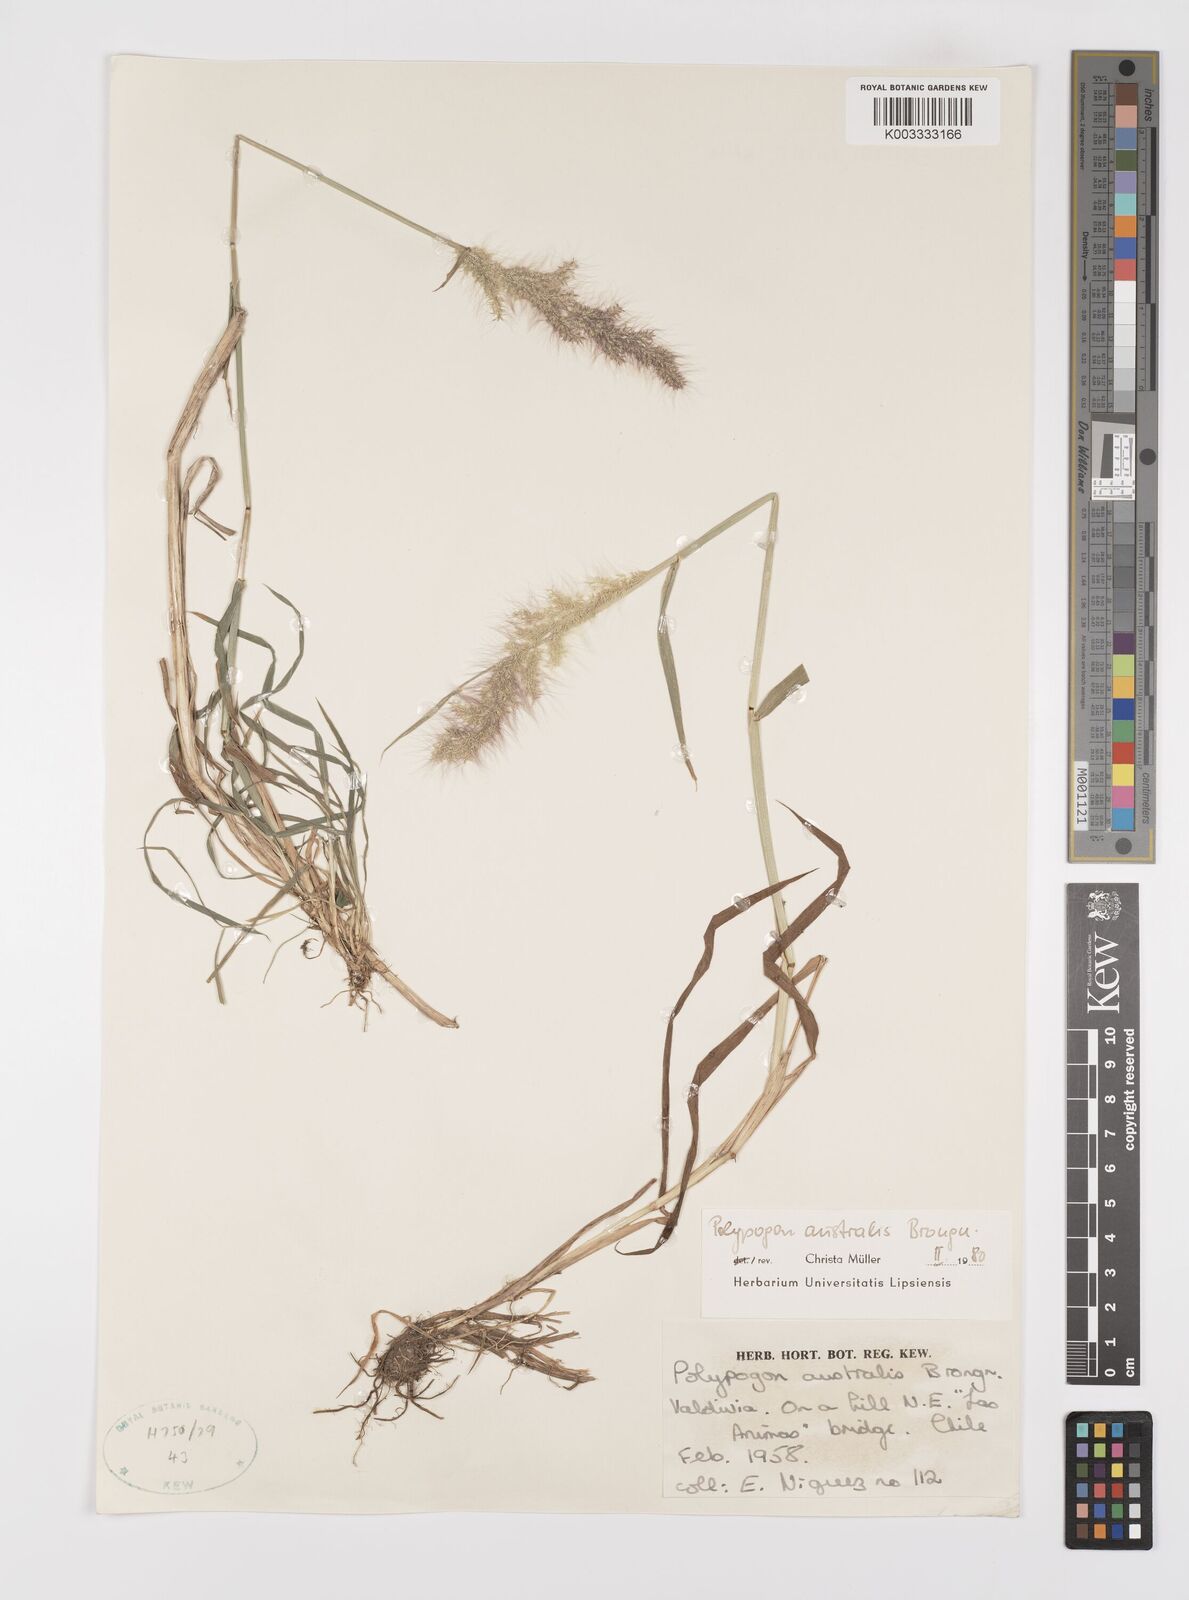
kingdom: Plantae
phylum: Tracheophyta
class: Liliopsida
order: Poales
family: Poaceae
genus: Polypogon
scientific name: Polypogon australis
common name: Chilean rabbitsfoot grass
